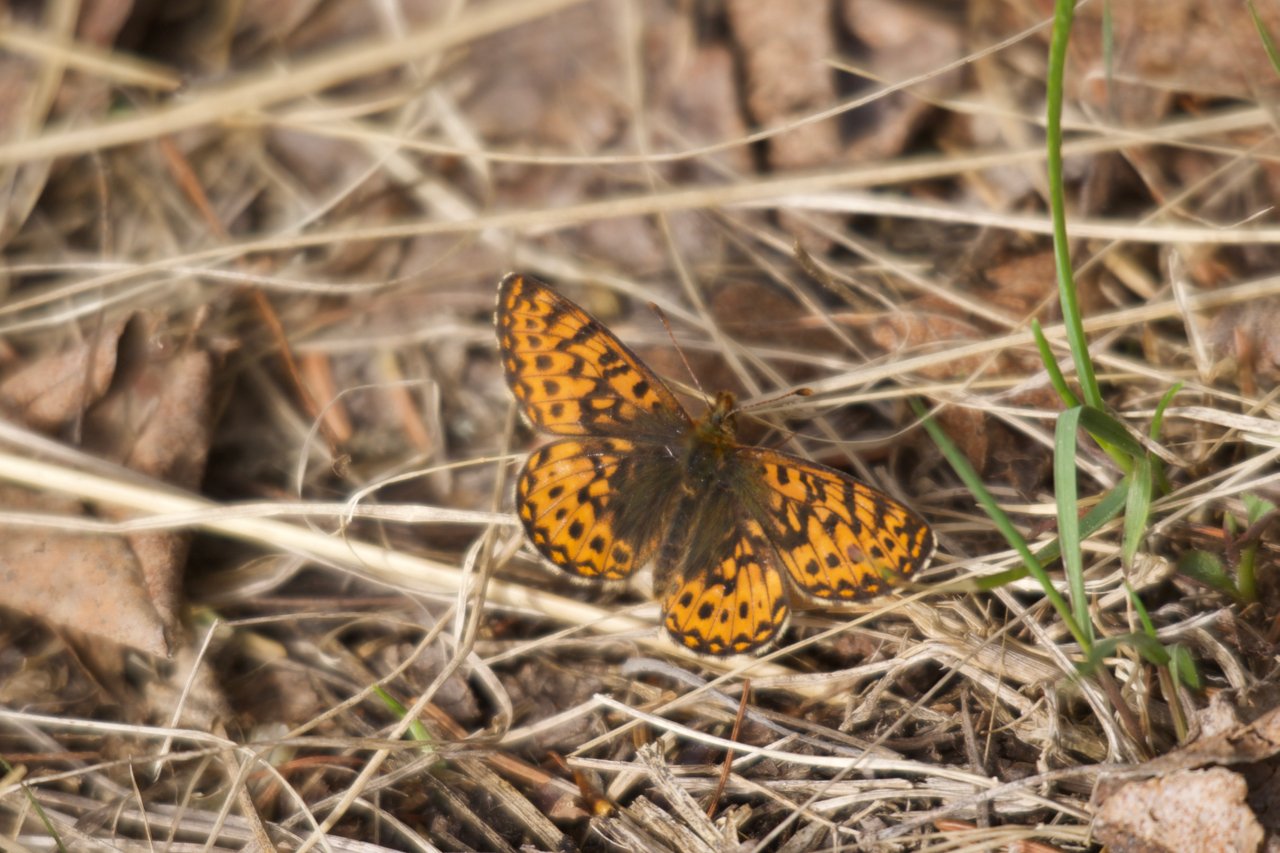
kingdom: Animalia
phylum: Arthropoda
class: Insecta
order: Lepidoptera
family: Nymphalidae
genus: Boloria
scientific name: Boloria freija
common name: Freija Fritillary
